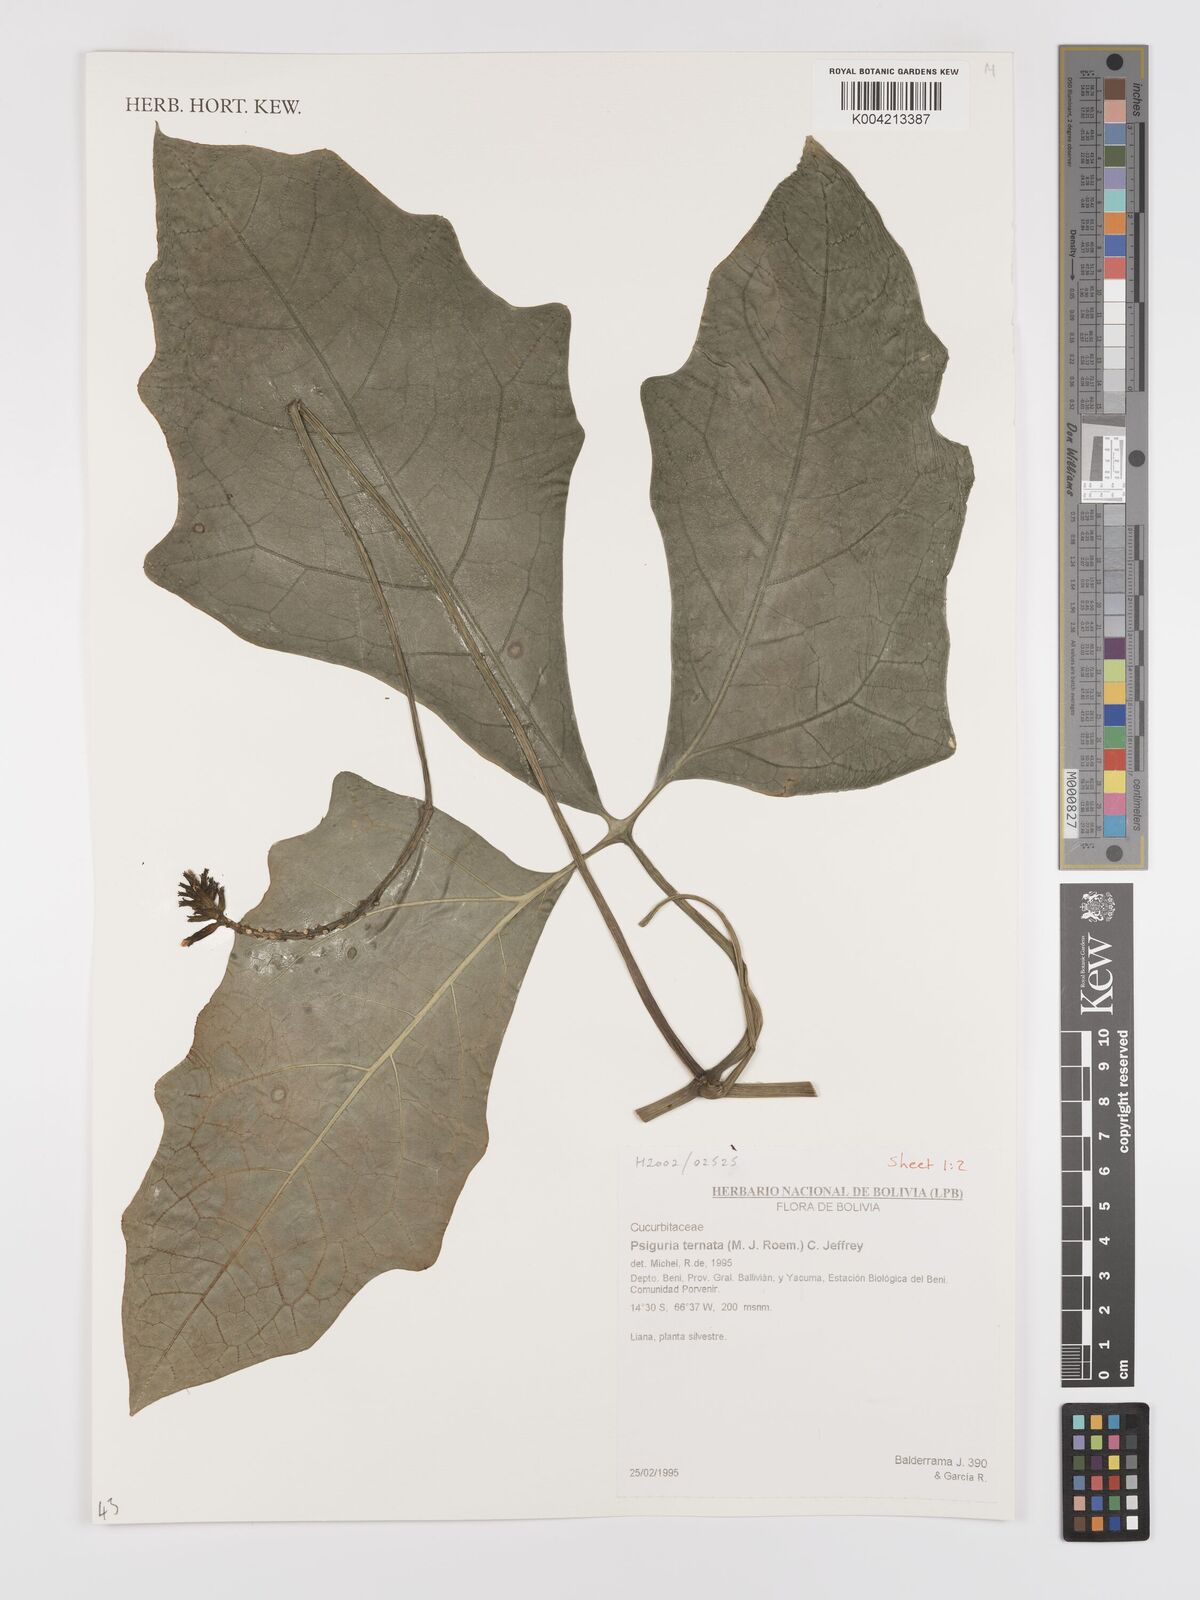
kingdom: Plantae
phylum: Tracheophyta
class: Magnoliopsida
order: Cucurbitales
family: Cucurbitaceae
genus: Psiguria
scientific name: Psiguria ternata
